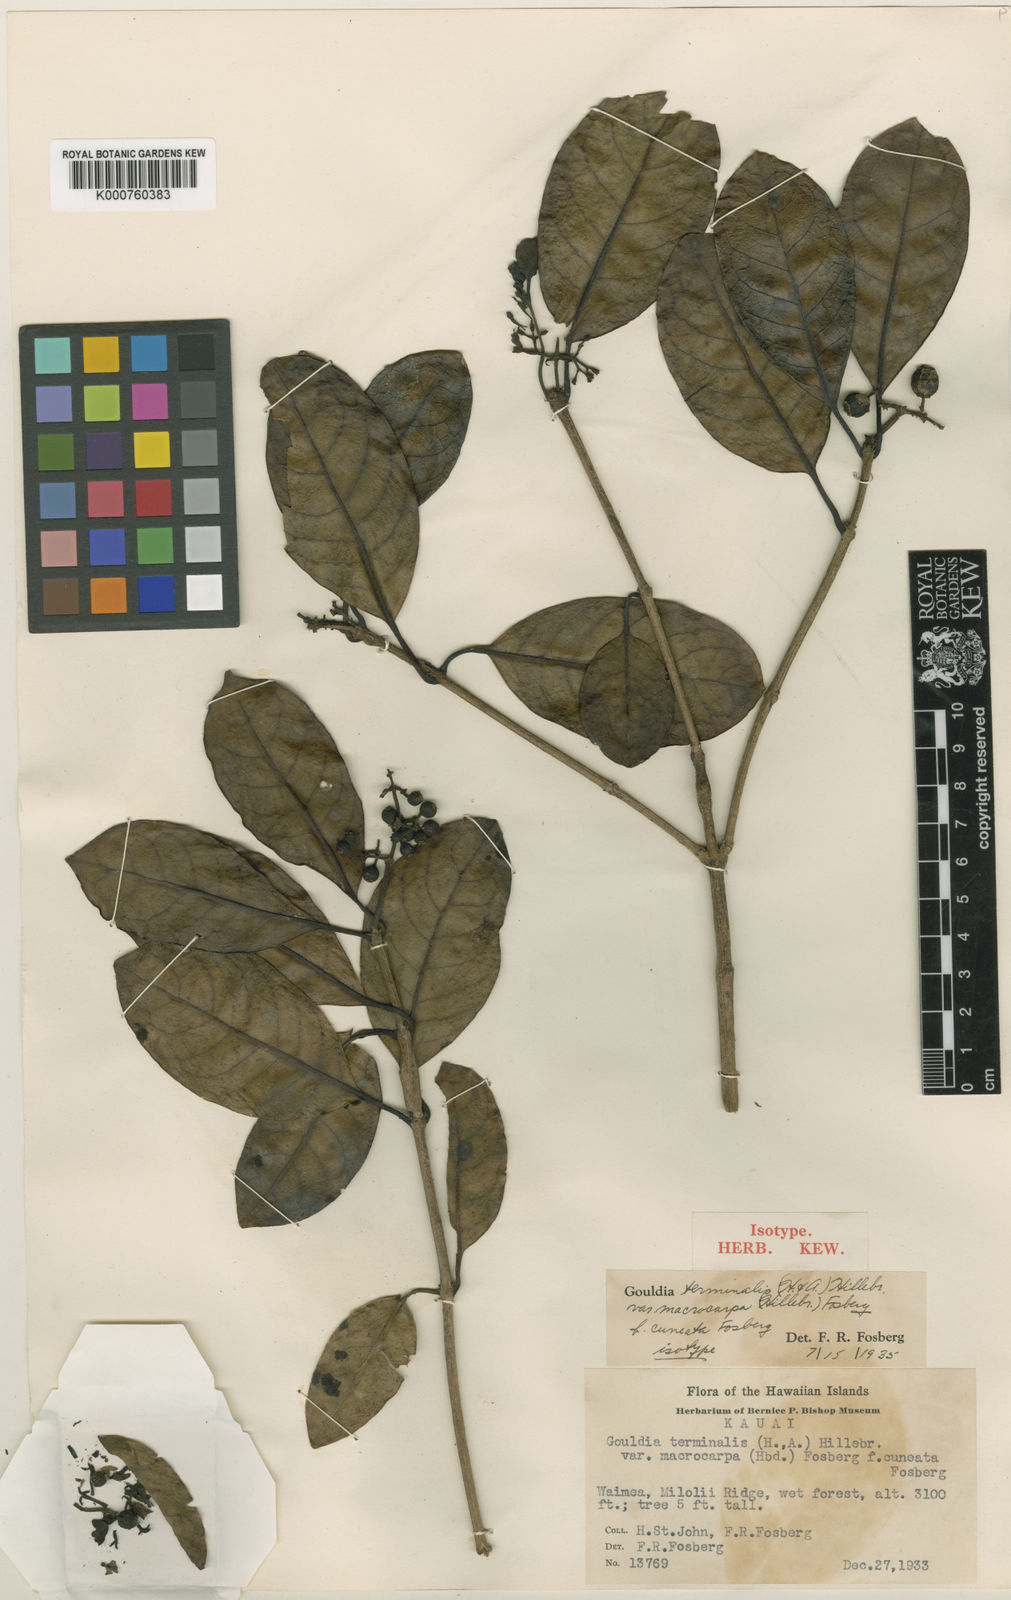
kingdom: Plantae
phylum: Tracheophyta
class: Magnoliopsida
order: Gentianales
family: Rubiaceae
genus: Kadua
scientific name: Kadua affinis
